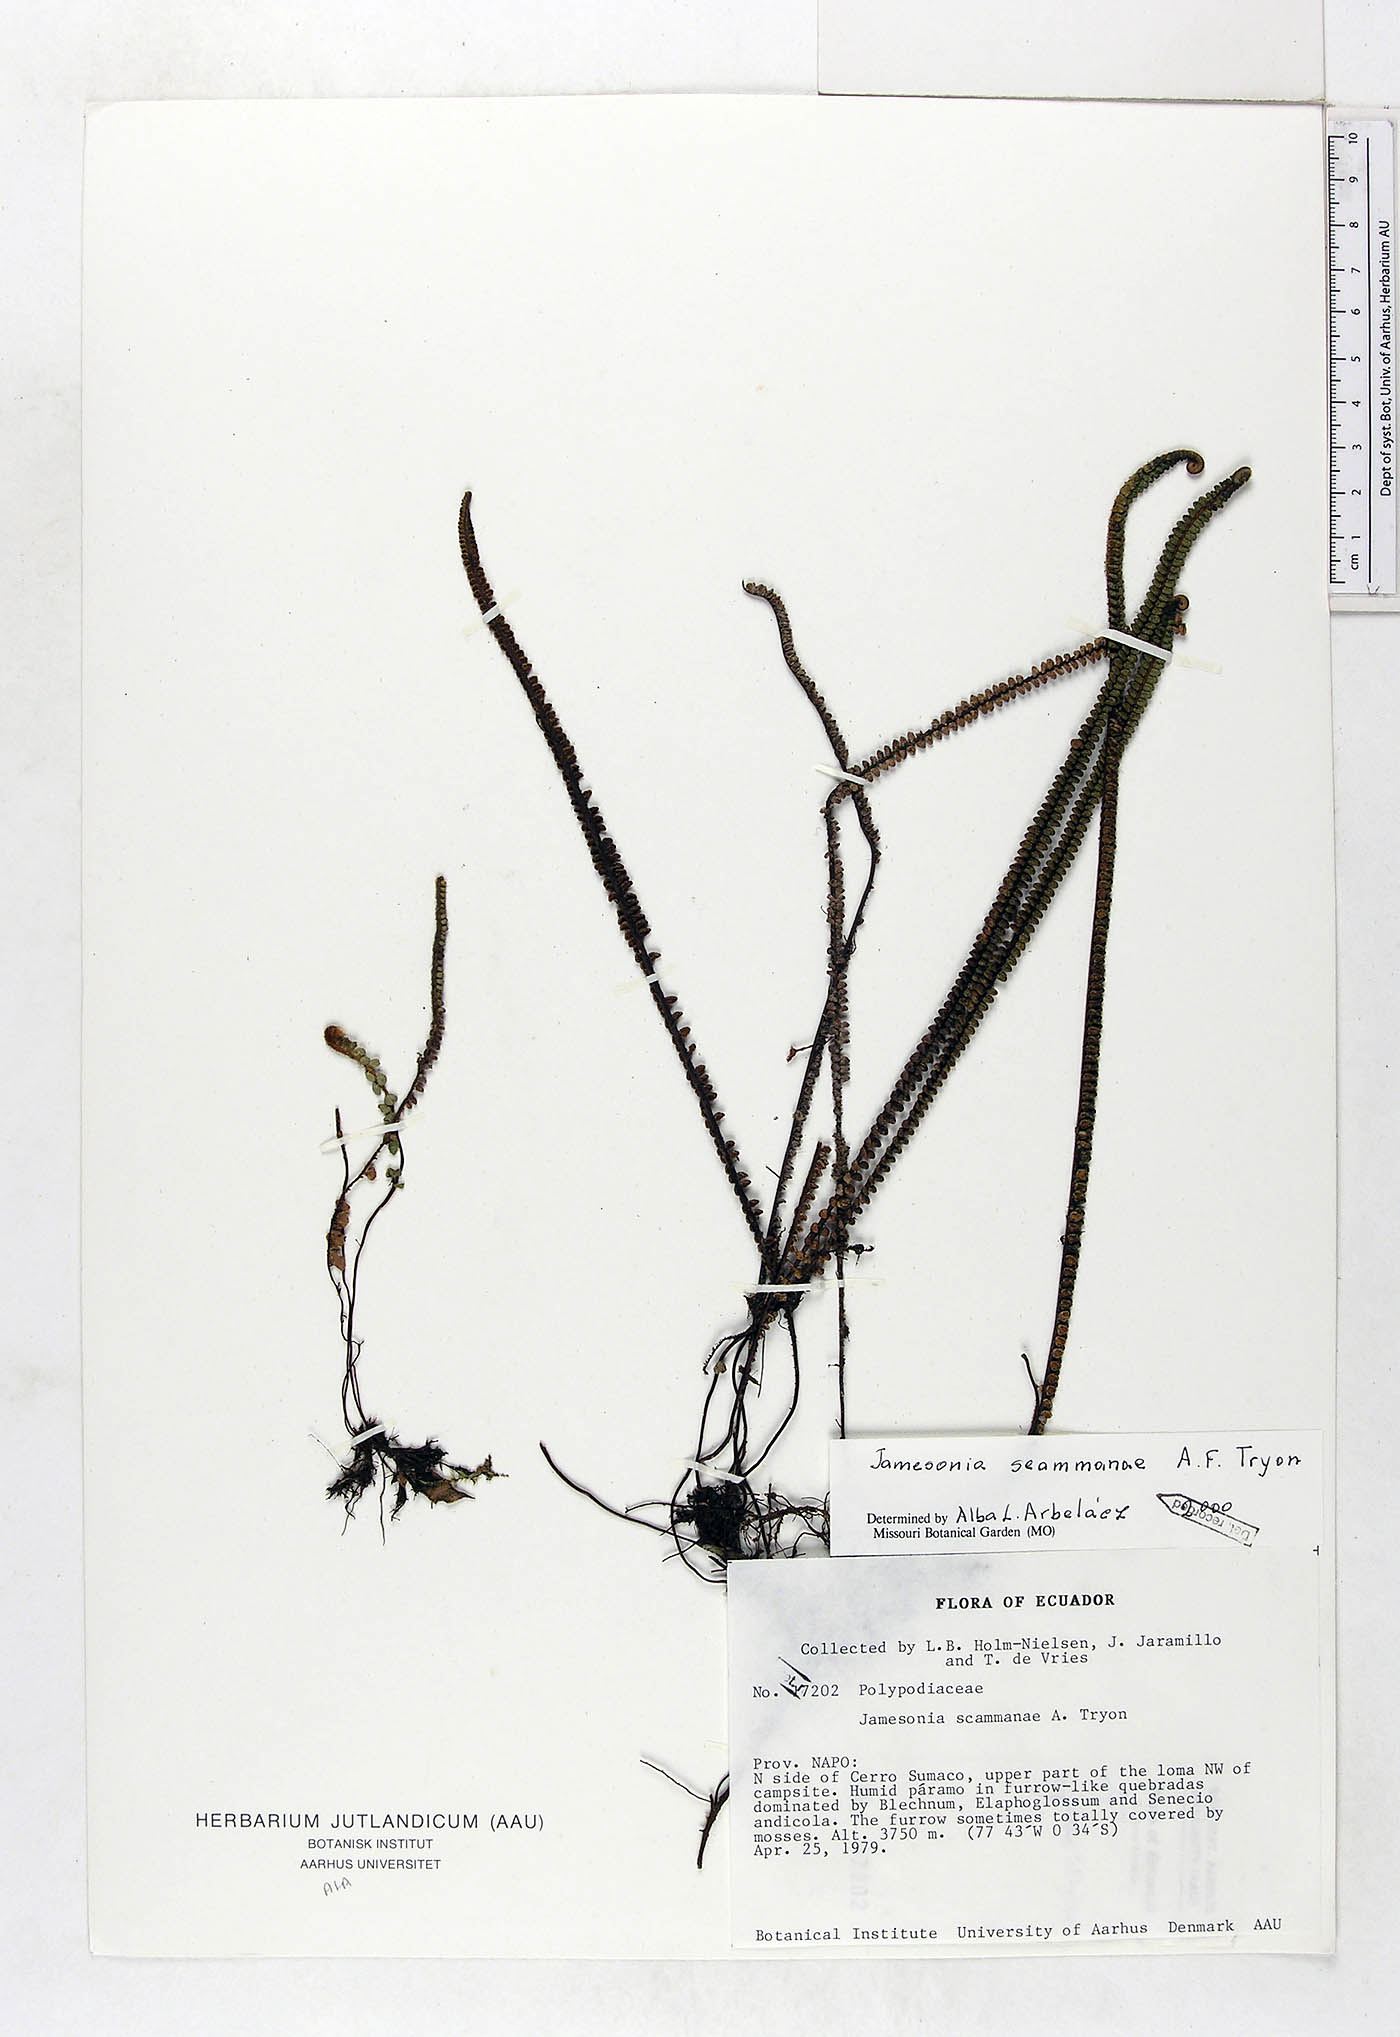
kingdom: Plantae
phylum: Tracheophyta
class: Polypodiopsida
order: Polypodiales
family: Pteridaceae
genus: Jamesonia
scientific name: Jamesonia scammanae
